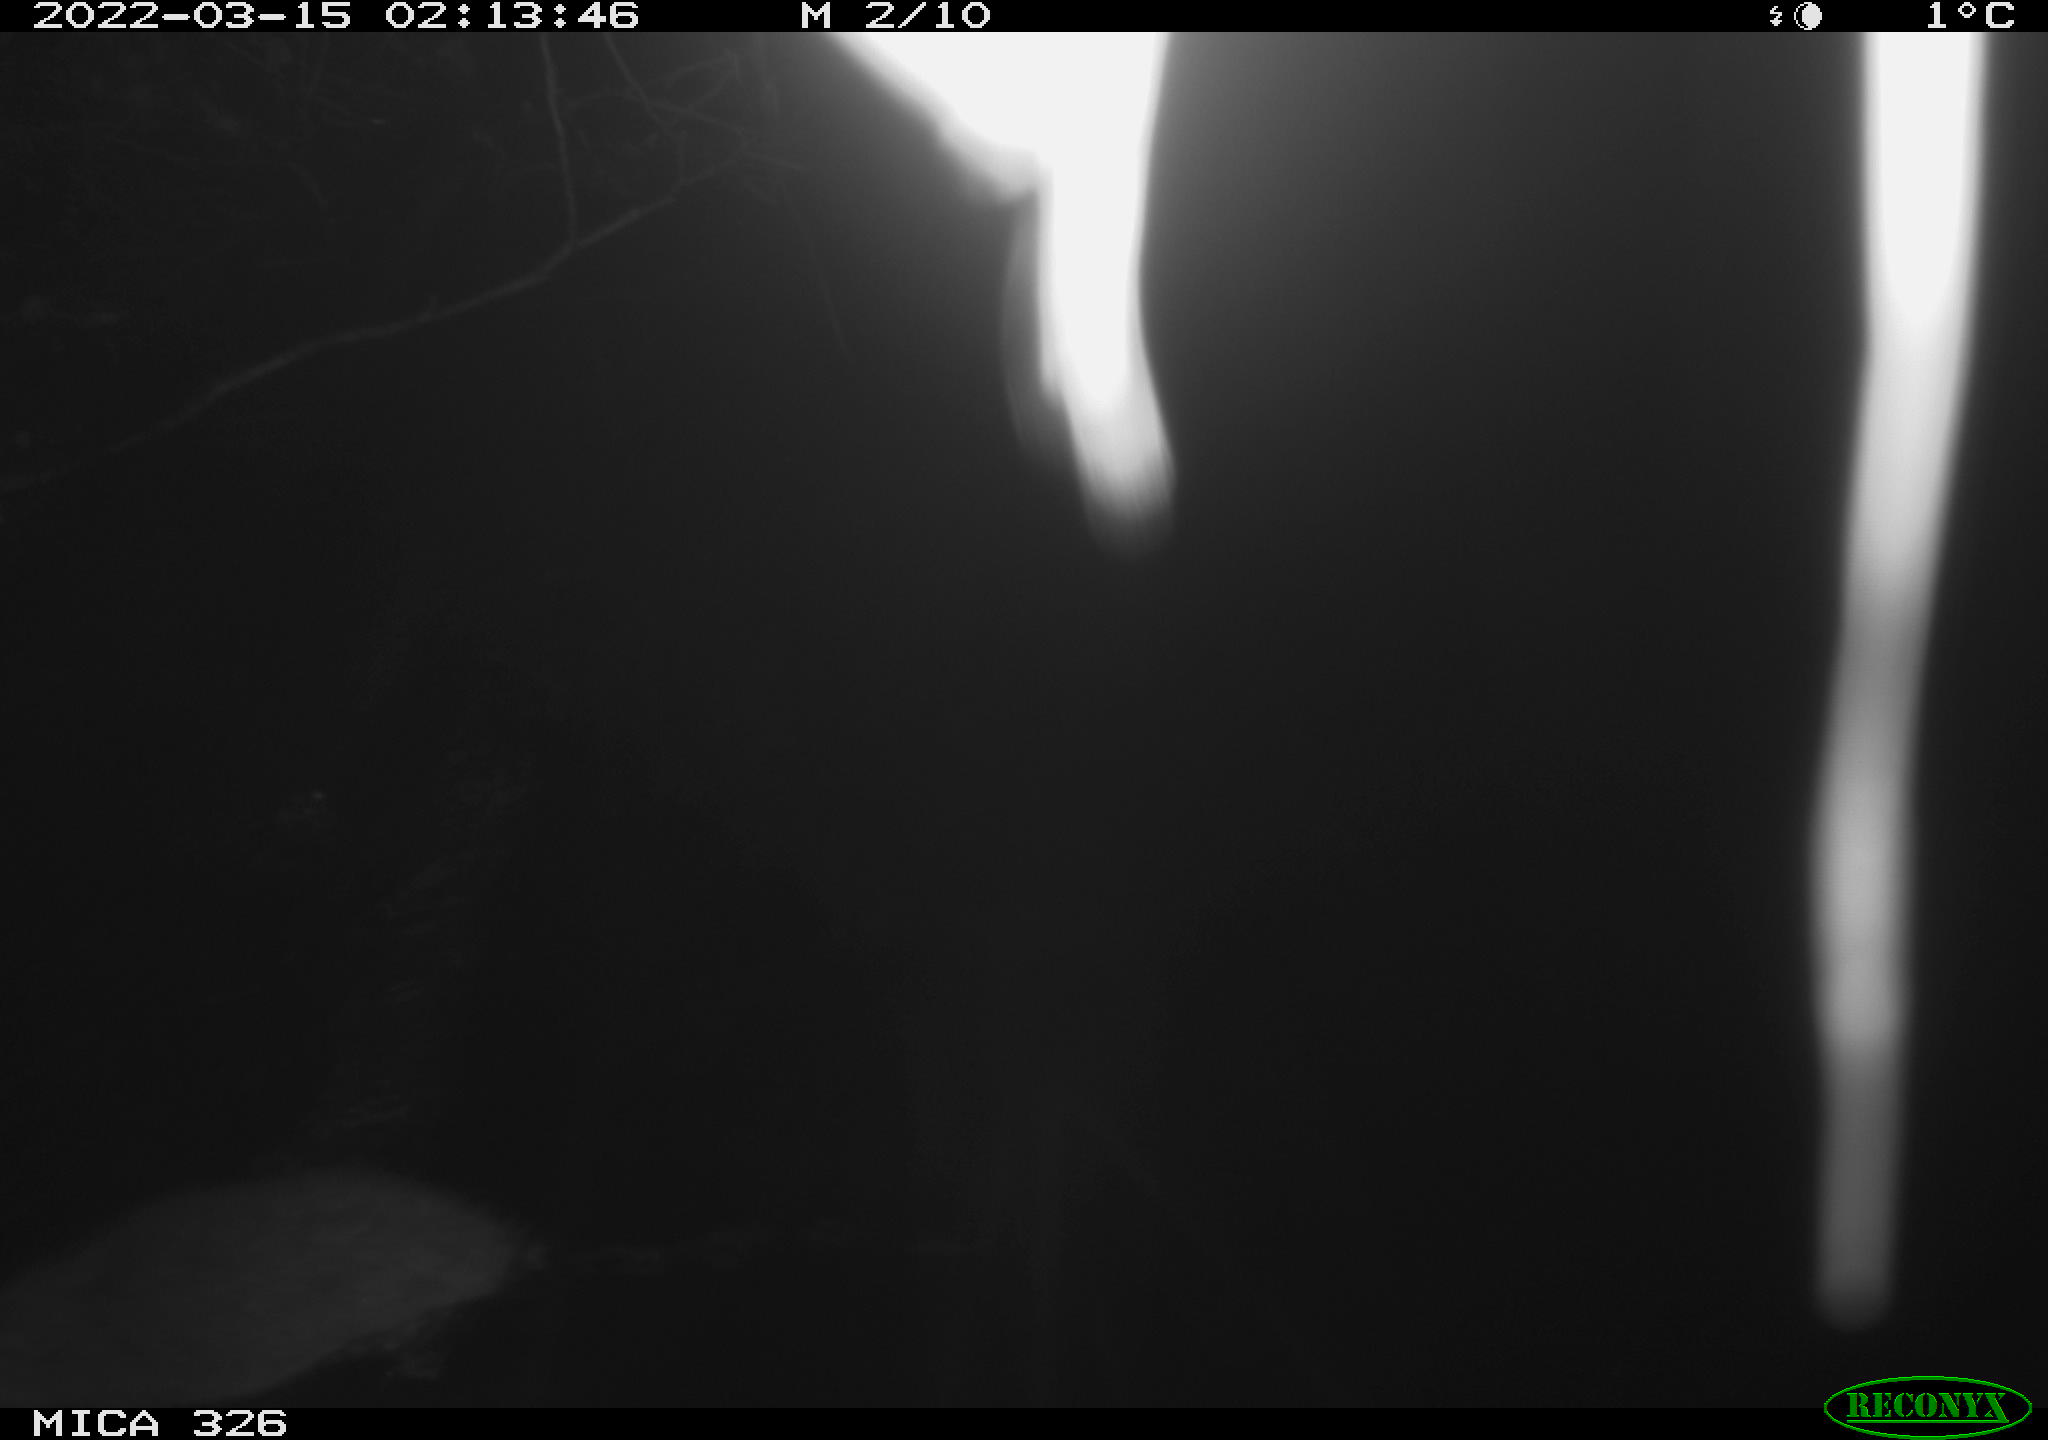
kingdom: Animalia
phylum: Chordata
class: Mammalia
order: Rodentia
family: Muridae
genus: Rattus
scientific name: Rattus norvegicus
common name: Brown rat
